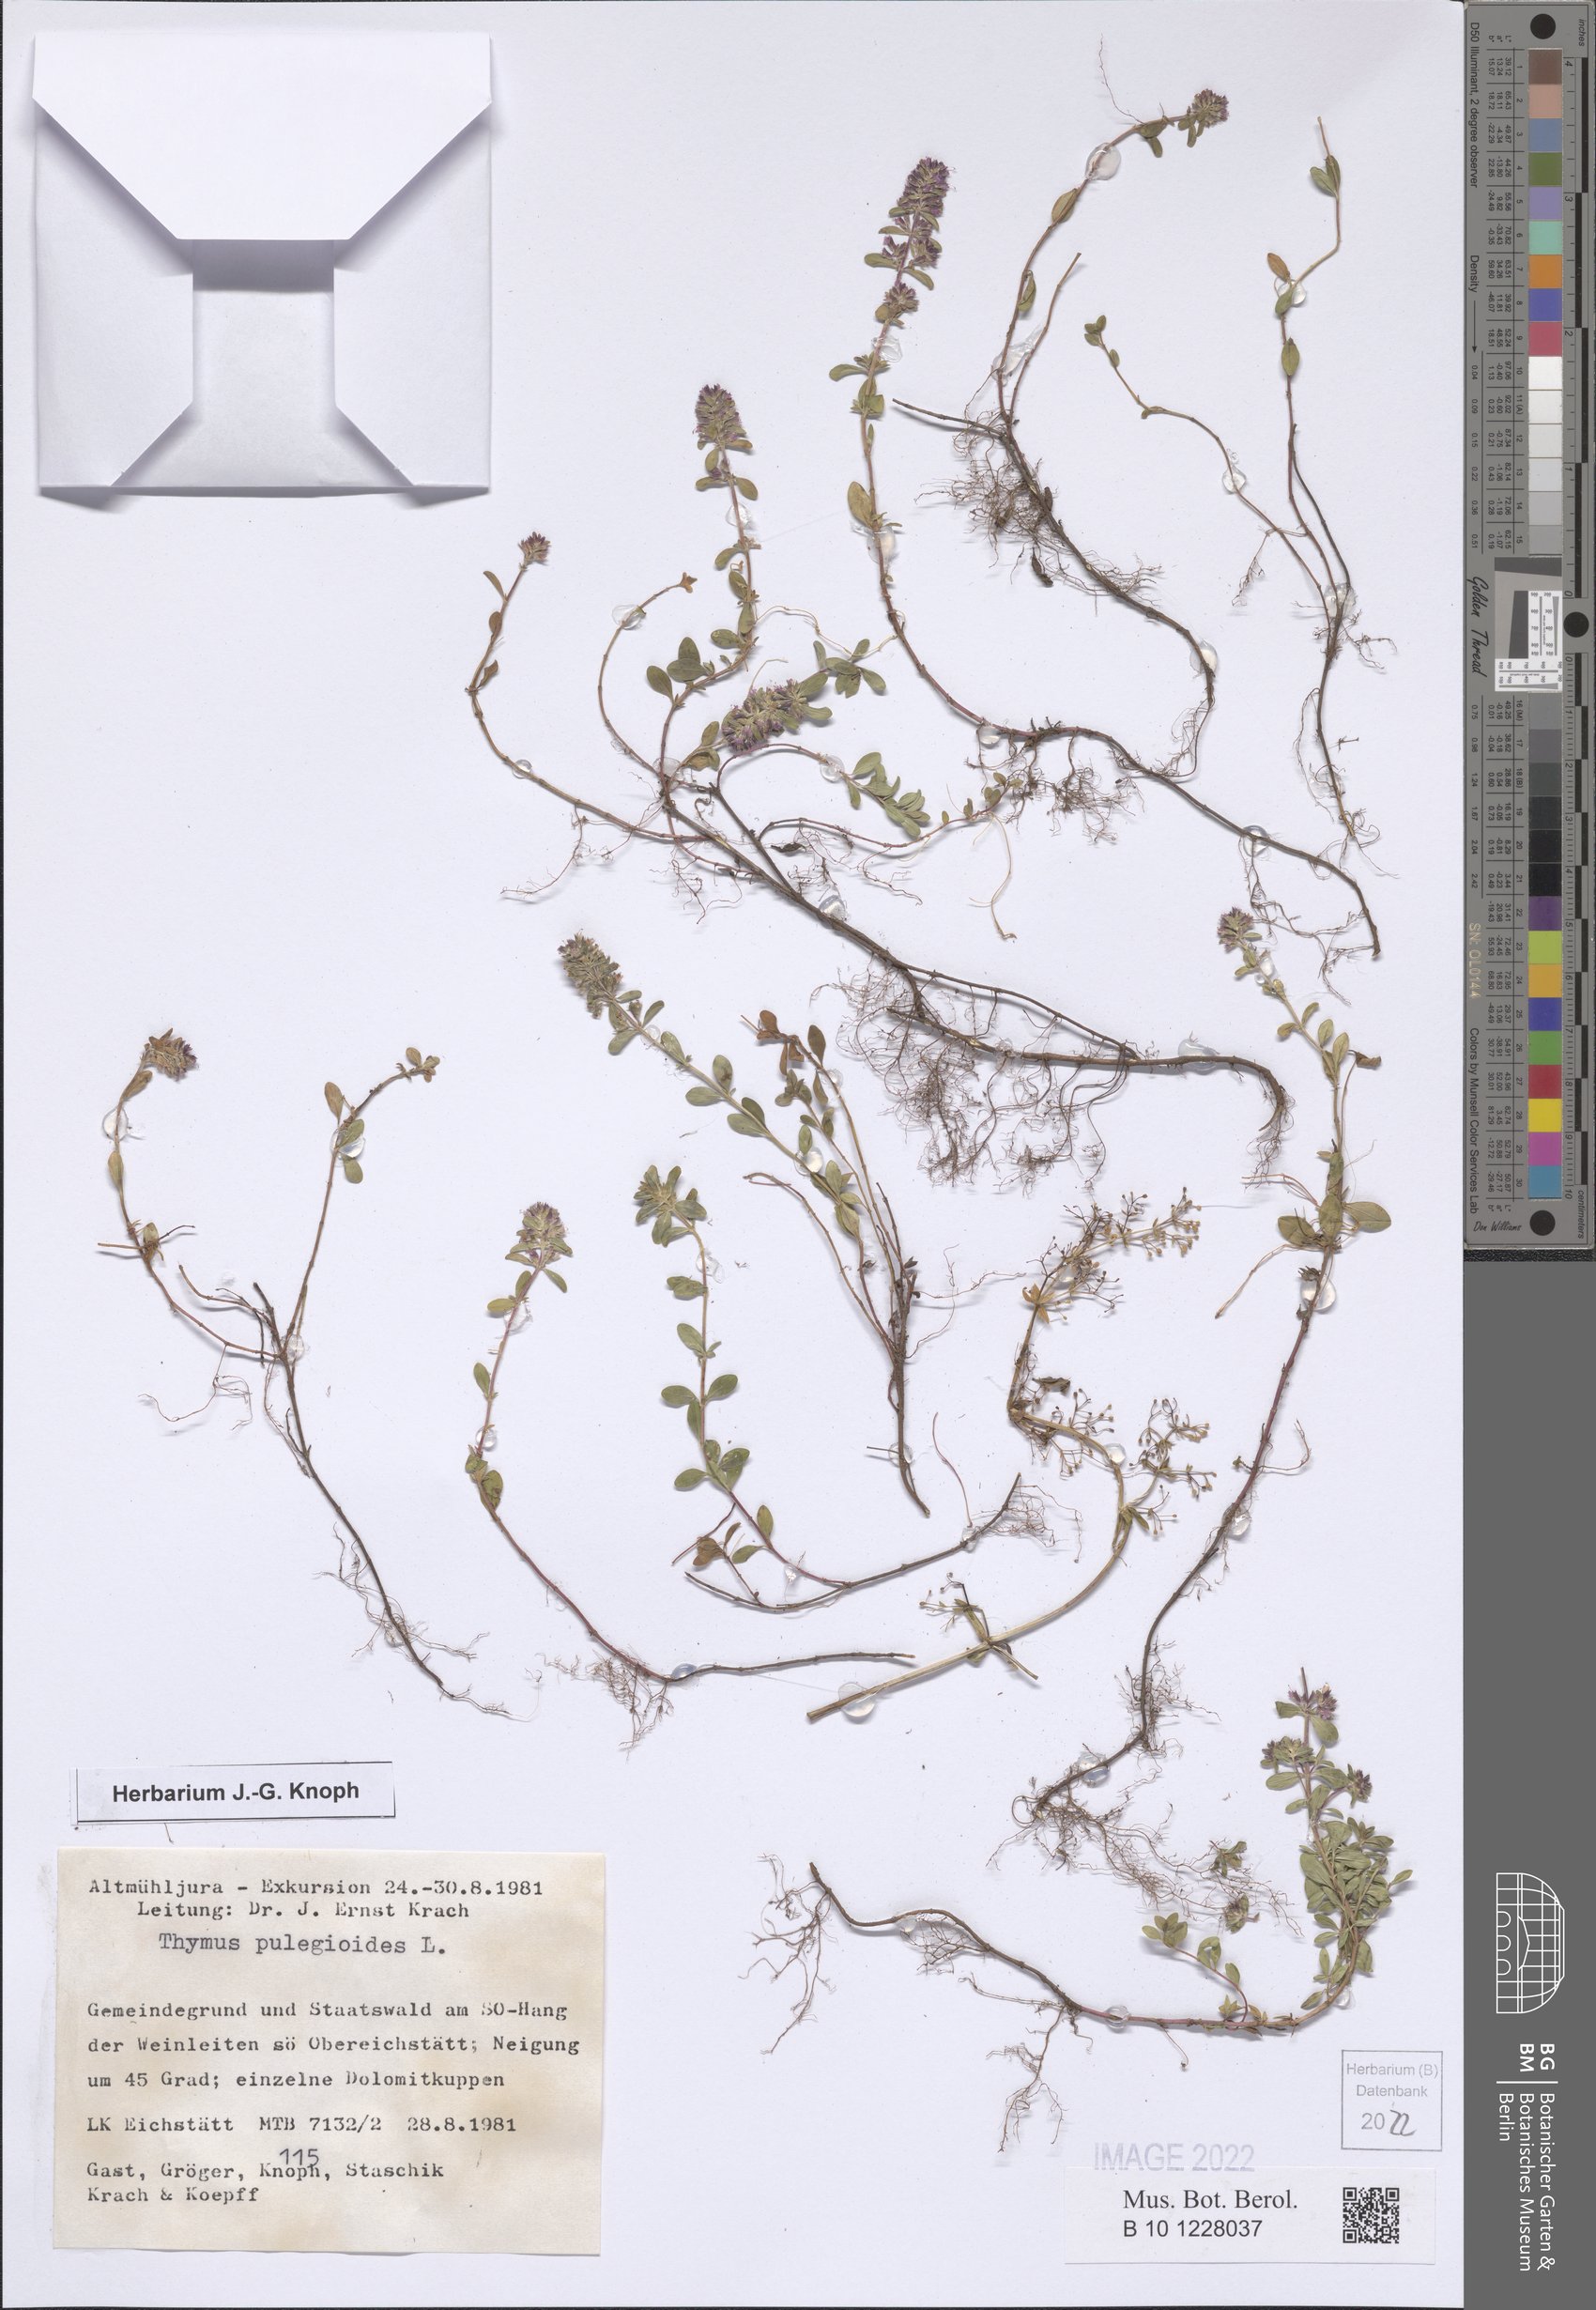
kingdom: Plantae
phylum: Tracheophyta
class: Magnoliopsida
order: Lamiales
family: Lamiaceae
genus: Thymus
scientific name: Thymus pulegioides
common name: Large thyme
